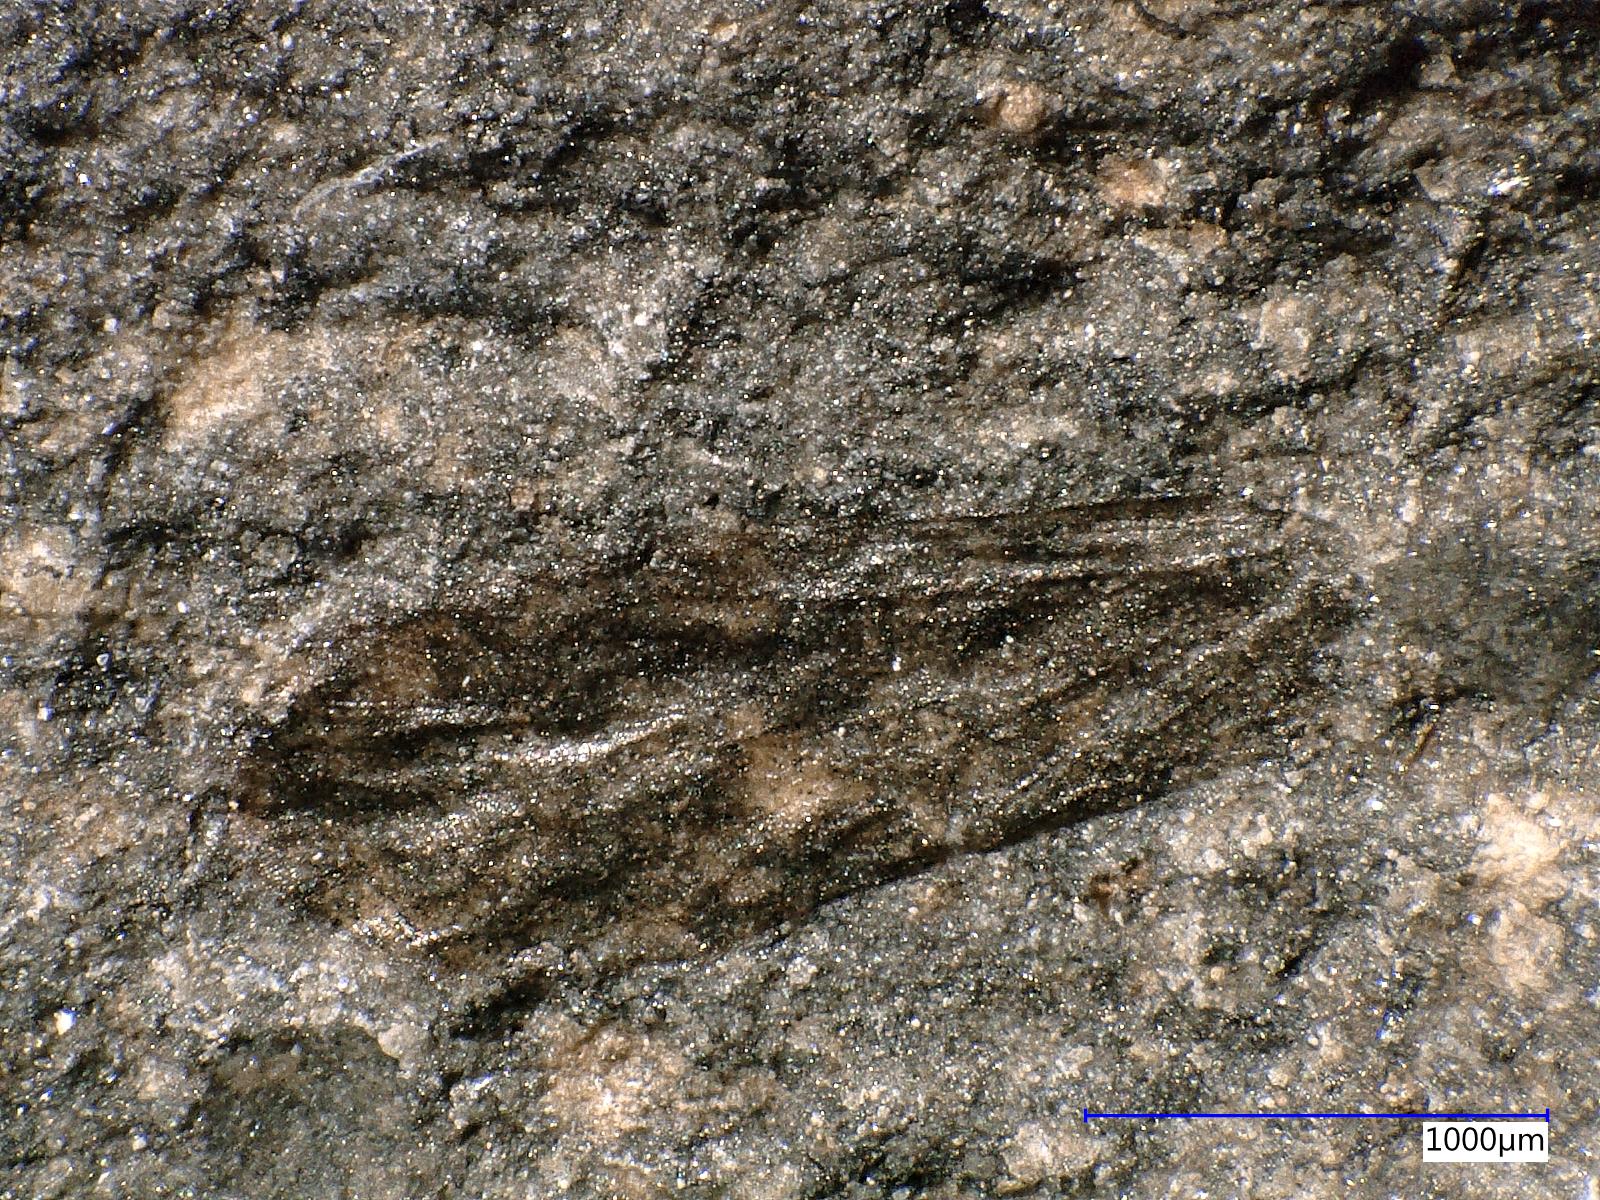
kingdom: Animalia
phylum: Arthropoda
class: Insecta
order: Diptera
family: Limoniidae
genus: Hexatoma
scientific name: Hexatoma
